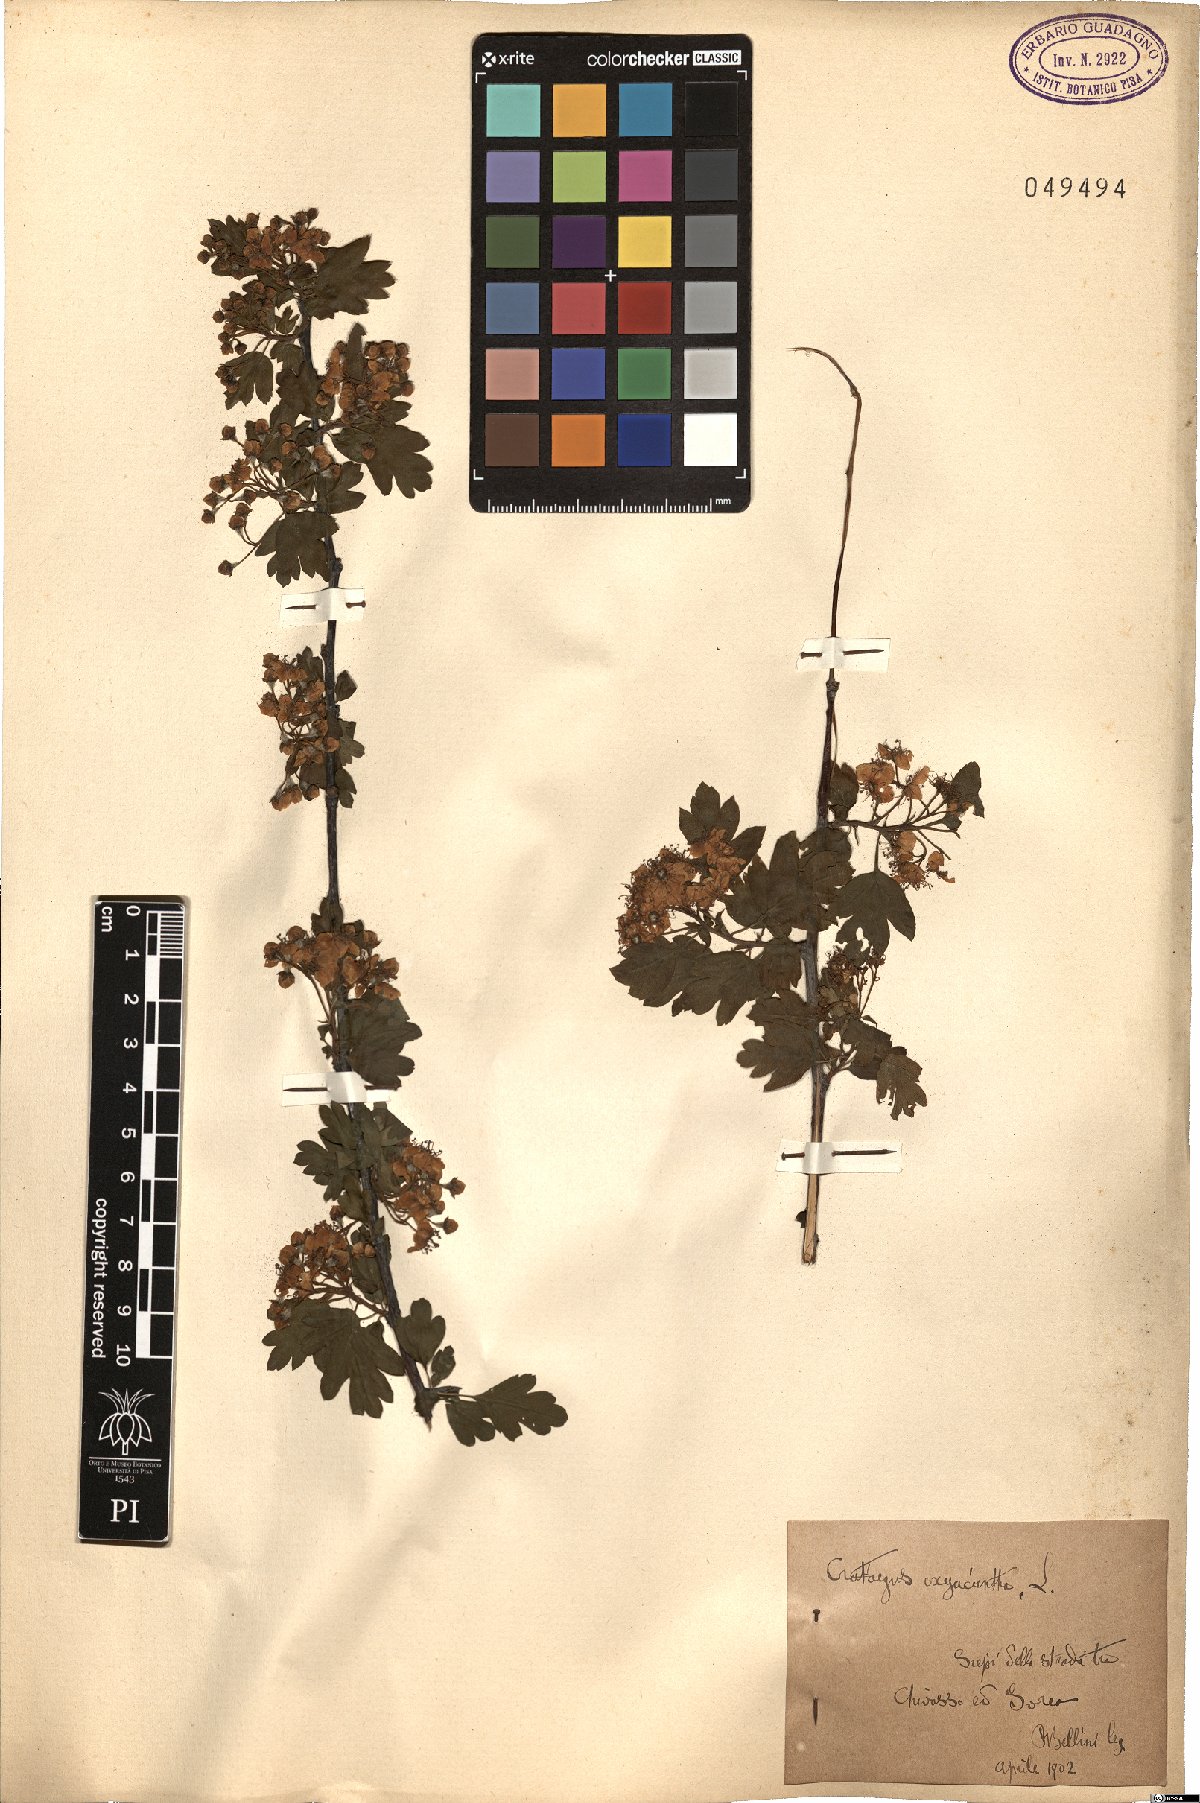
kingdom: Plantae
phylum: Tracheophyta
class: Magnoliopsida
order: Rosales
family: Rosaceae
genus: Crataegus
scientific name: Crataegus monogyna
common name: Hawthorn
